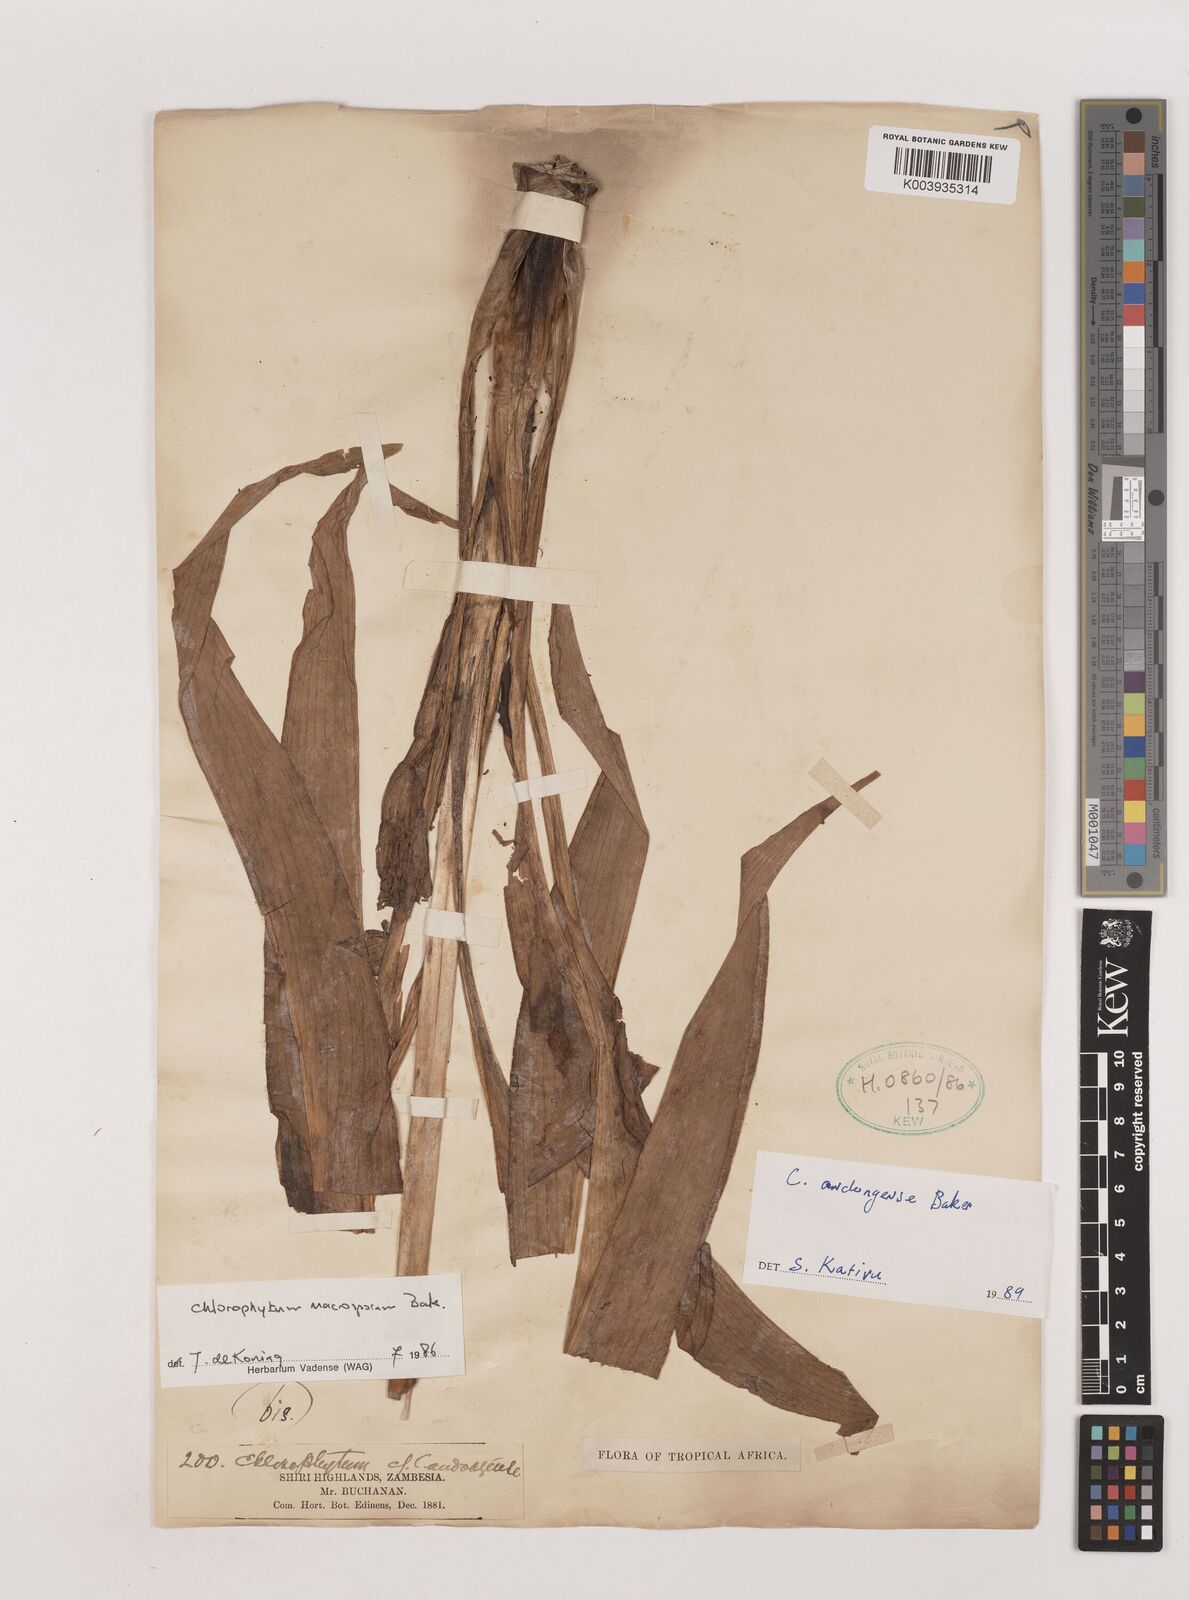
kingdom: Plantae
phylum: Tracheophyta
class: Liliopsida
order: Asparagales
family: Asparagaceae
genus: Chlorophytum
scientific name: Chlorophytum andongense
